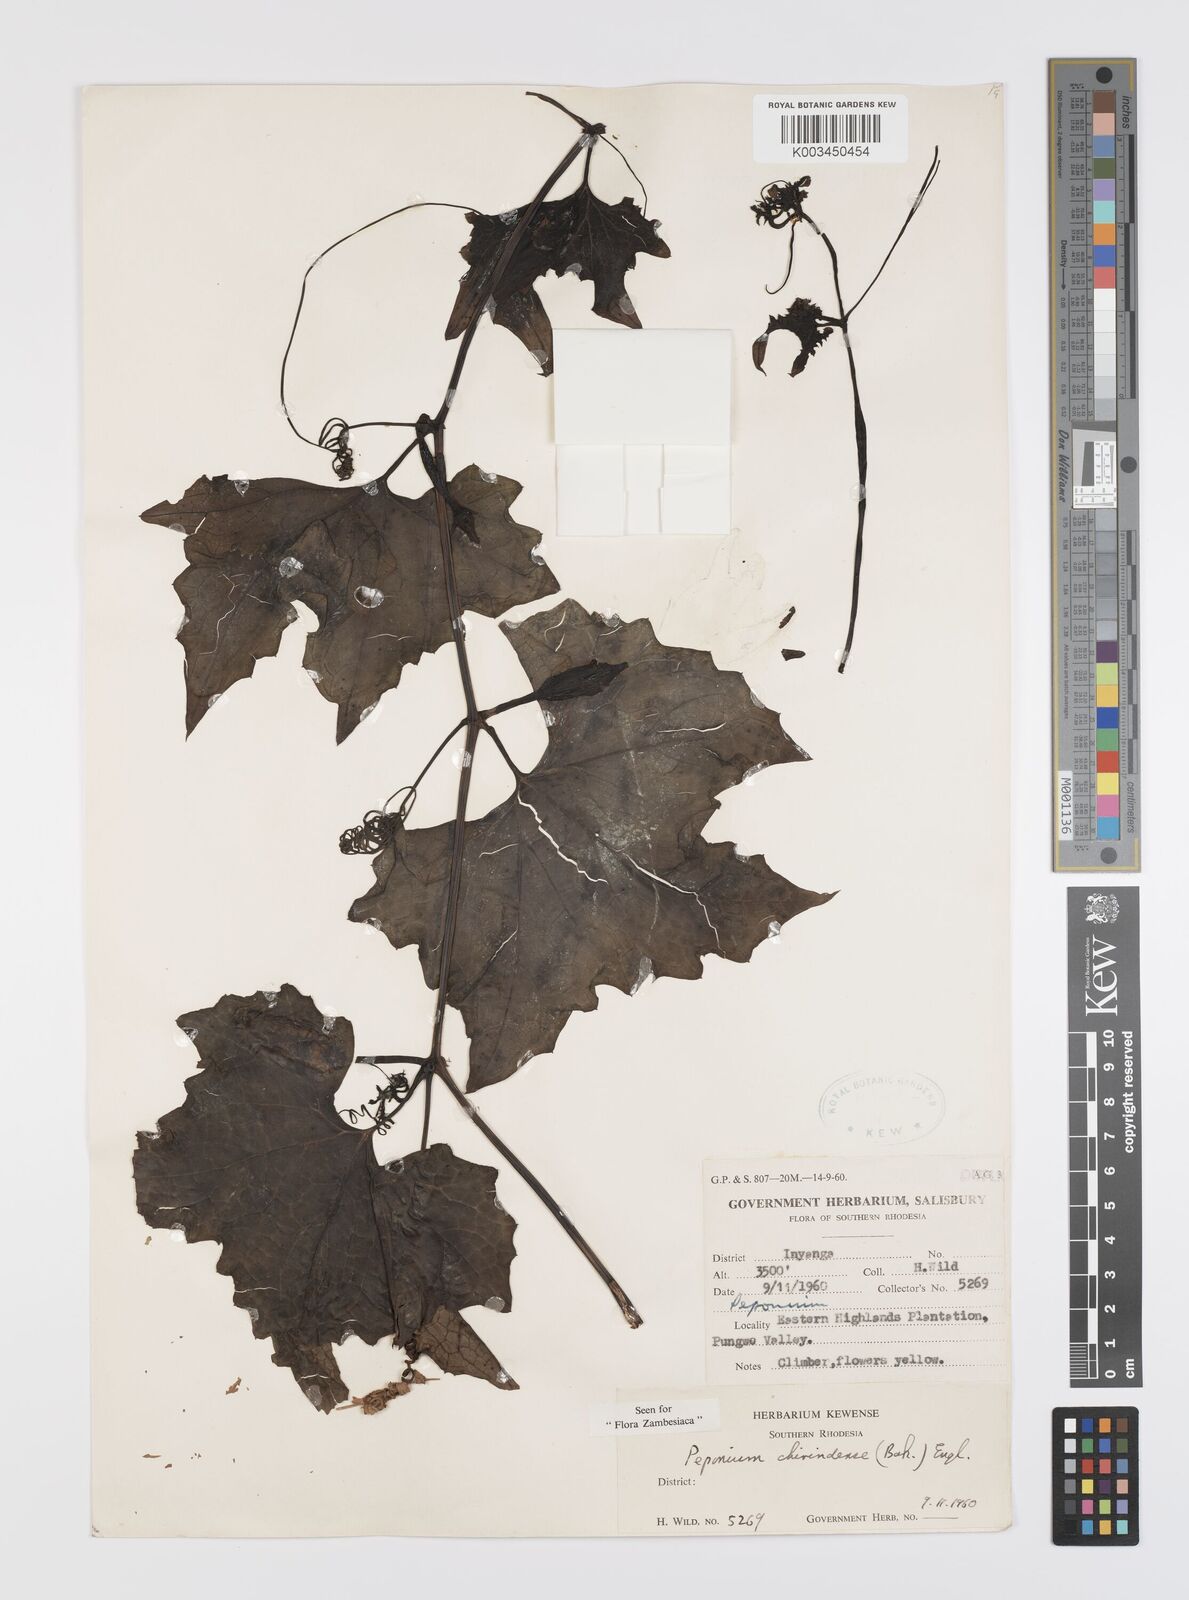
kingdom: Plantae
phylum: Tracheophyta
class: Magnoliopsida
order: Cucurbitales
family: Cucurbitaceae
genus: Peponium
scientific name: Peponium chirindense
